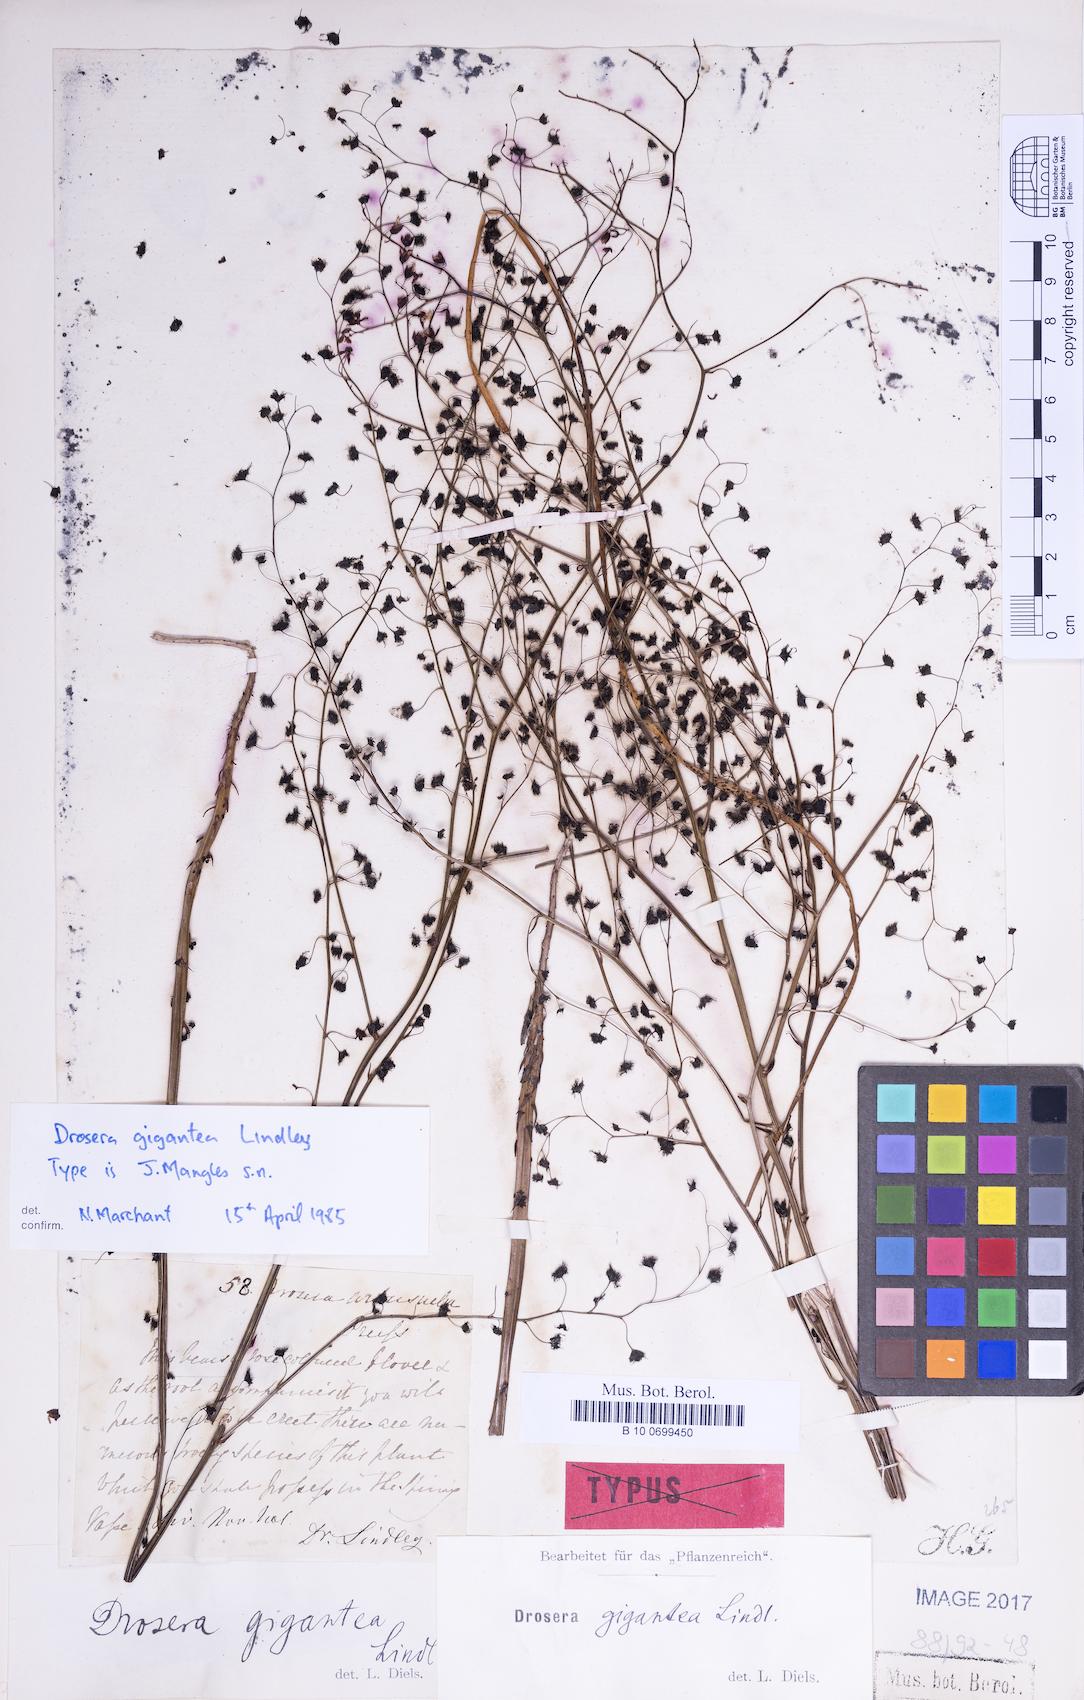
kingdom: Plantae
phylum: Tracheophyta
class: Magnoliopsida
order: Caryophyllales
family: Droseraceae
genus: Drosera
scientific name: Drosera gigantea
